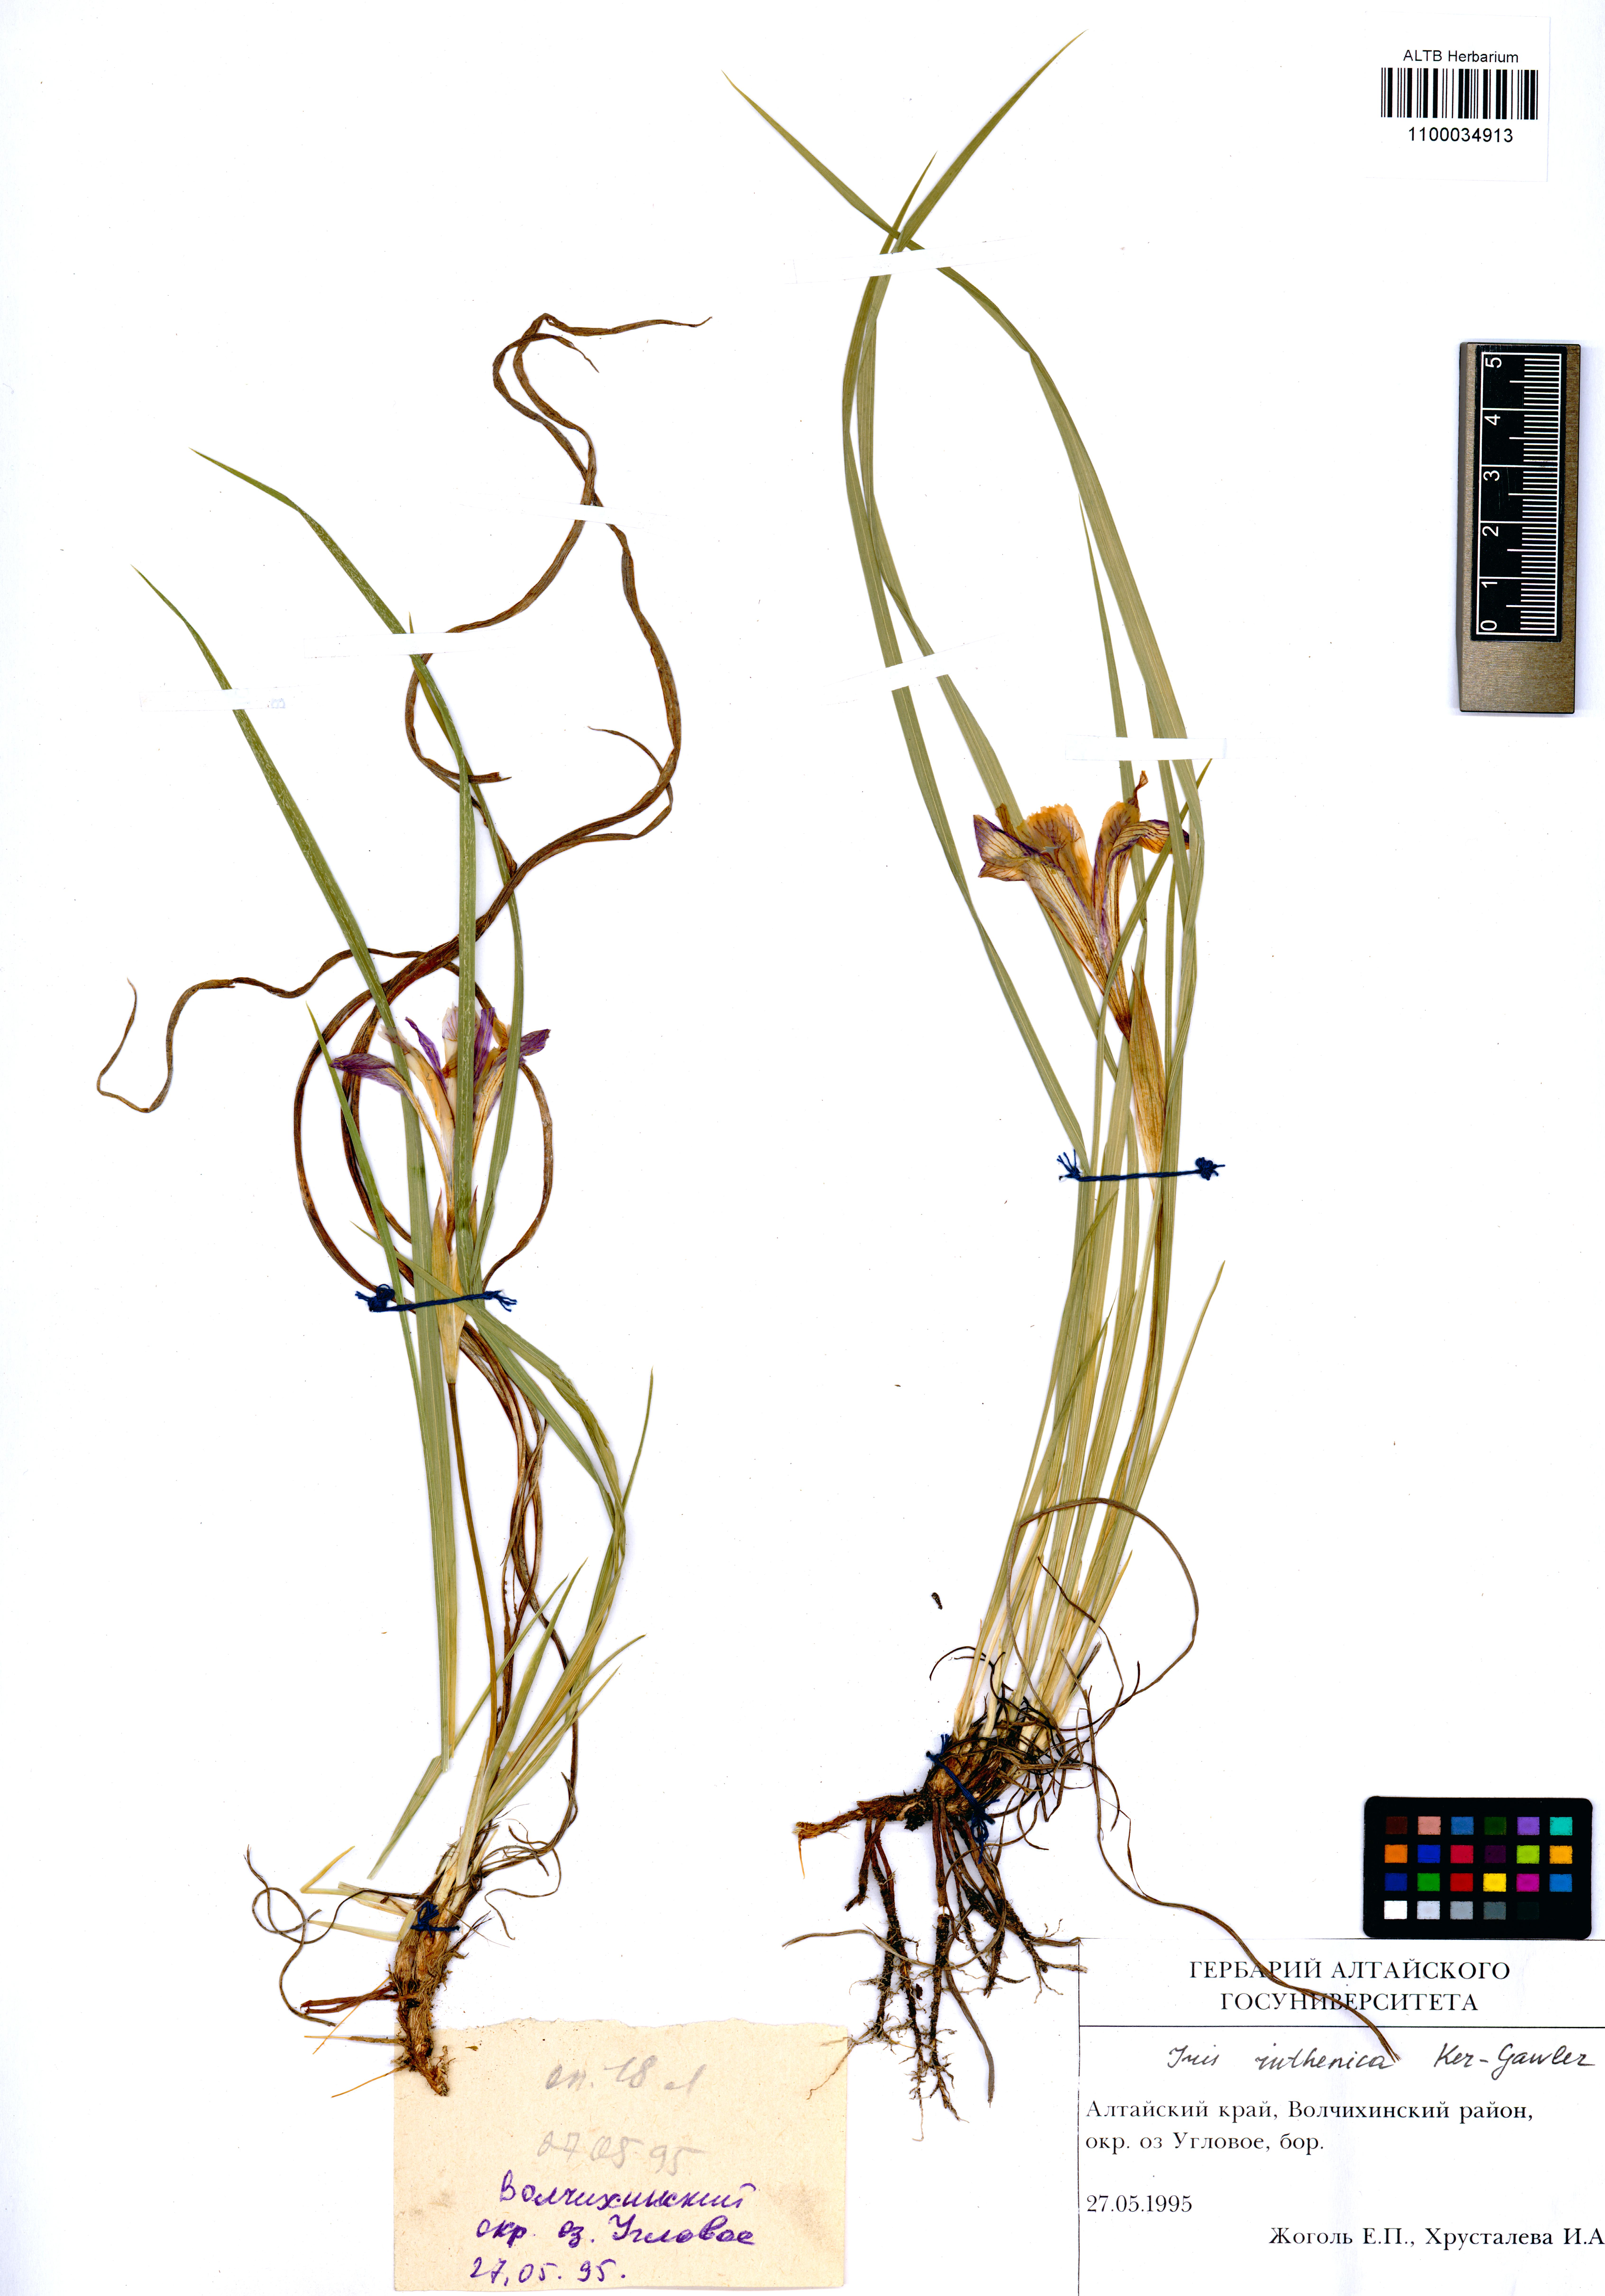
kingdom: Plantae
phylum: Tracheophyta
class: Liliopsida
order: Asparagales
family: Iridaceae
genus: Iris
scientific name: Iris ruthenica
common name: Purple-bract iris
